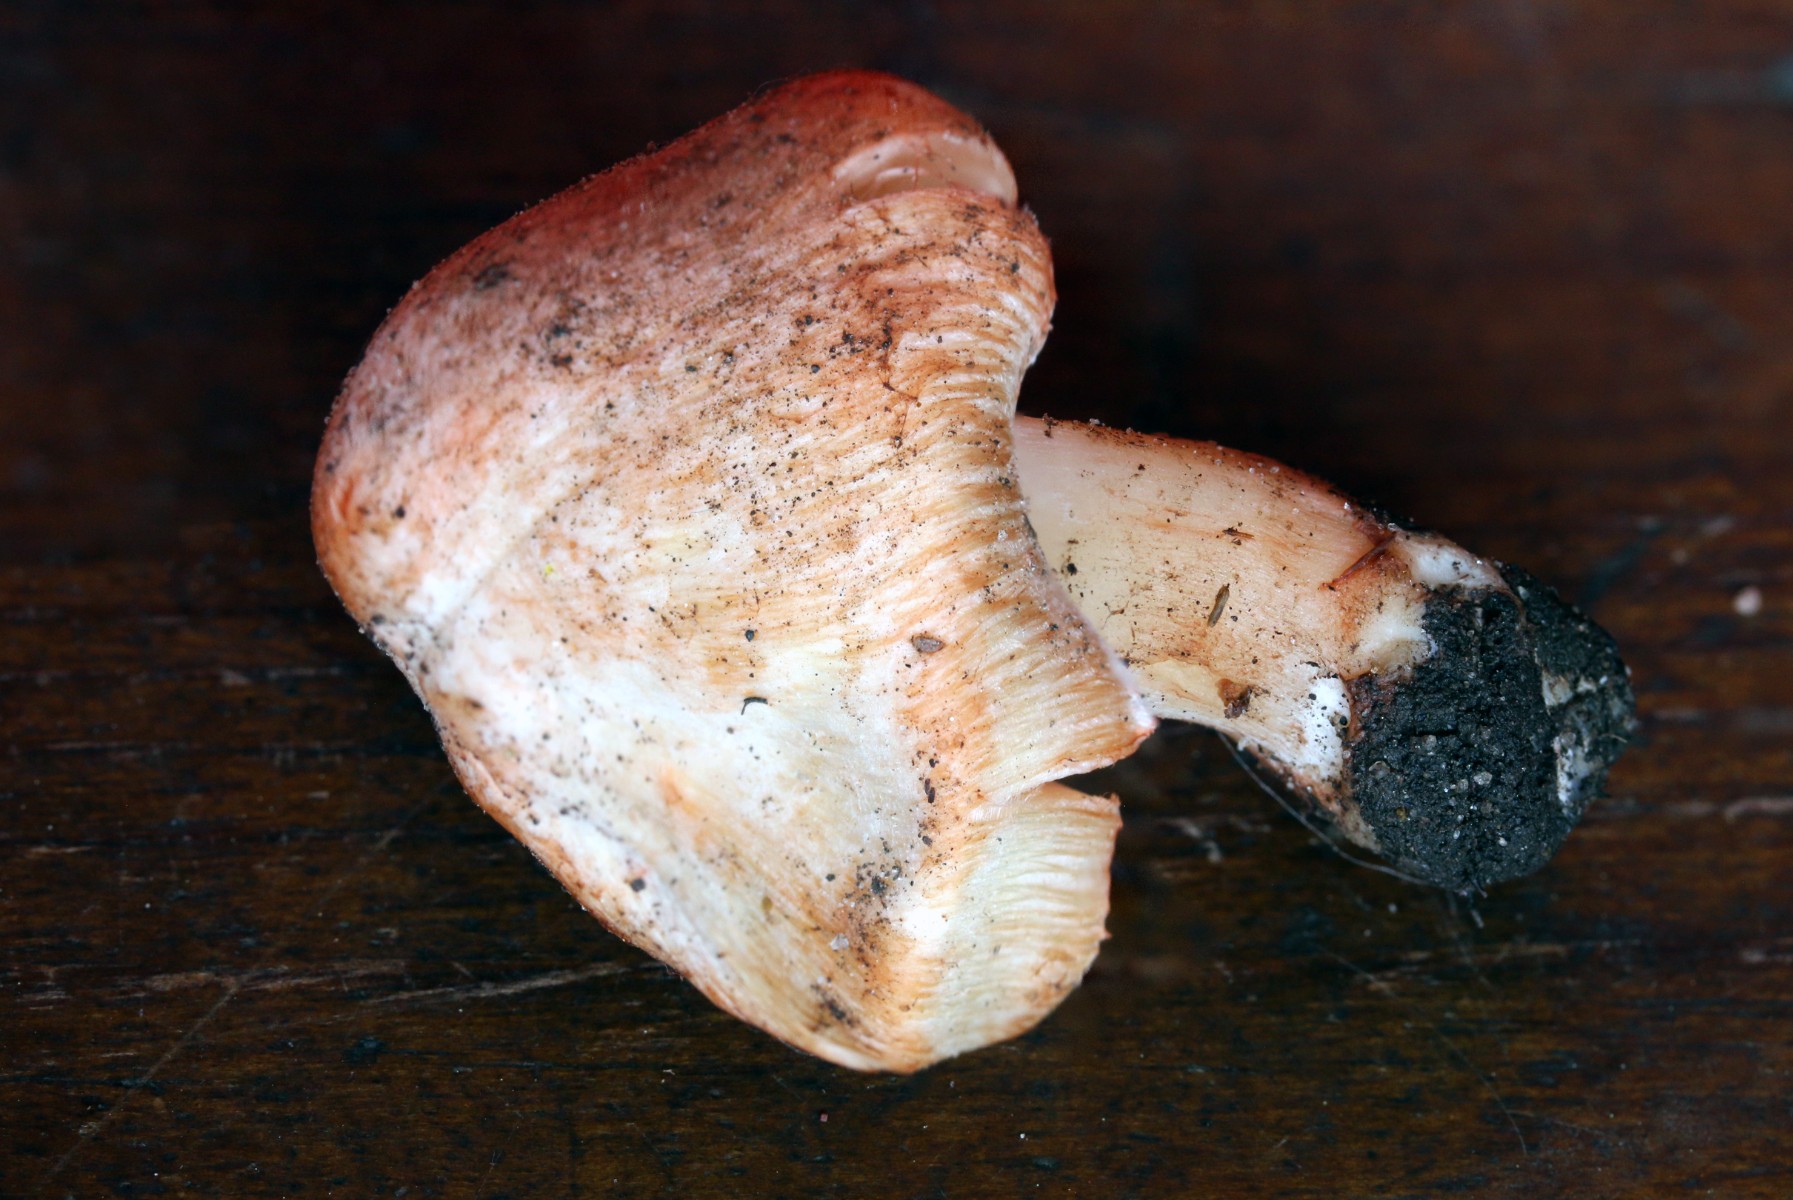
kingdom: Fungi
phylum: Basidiomycota
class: Agaricomycetes
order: Agaricales
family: Inocybaceae
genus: Inosperma
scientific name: Inosperma erubescens
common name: giftig trævlhat
